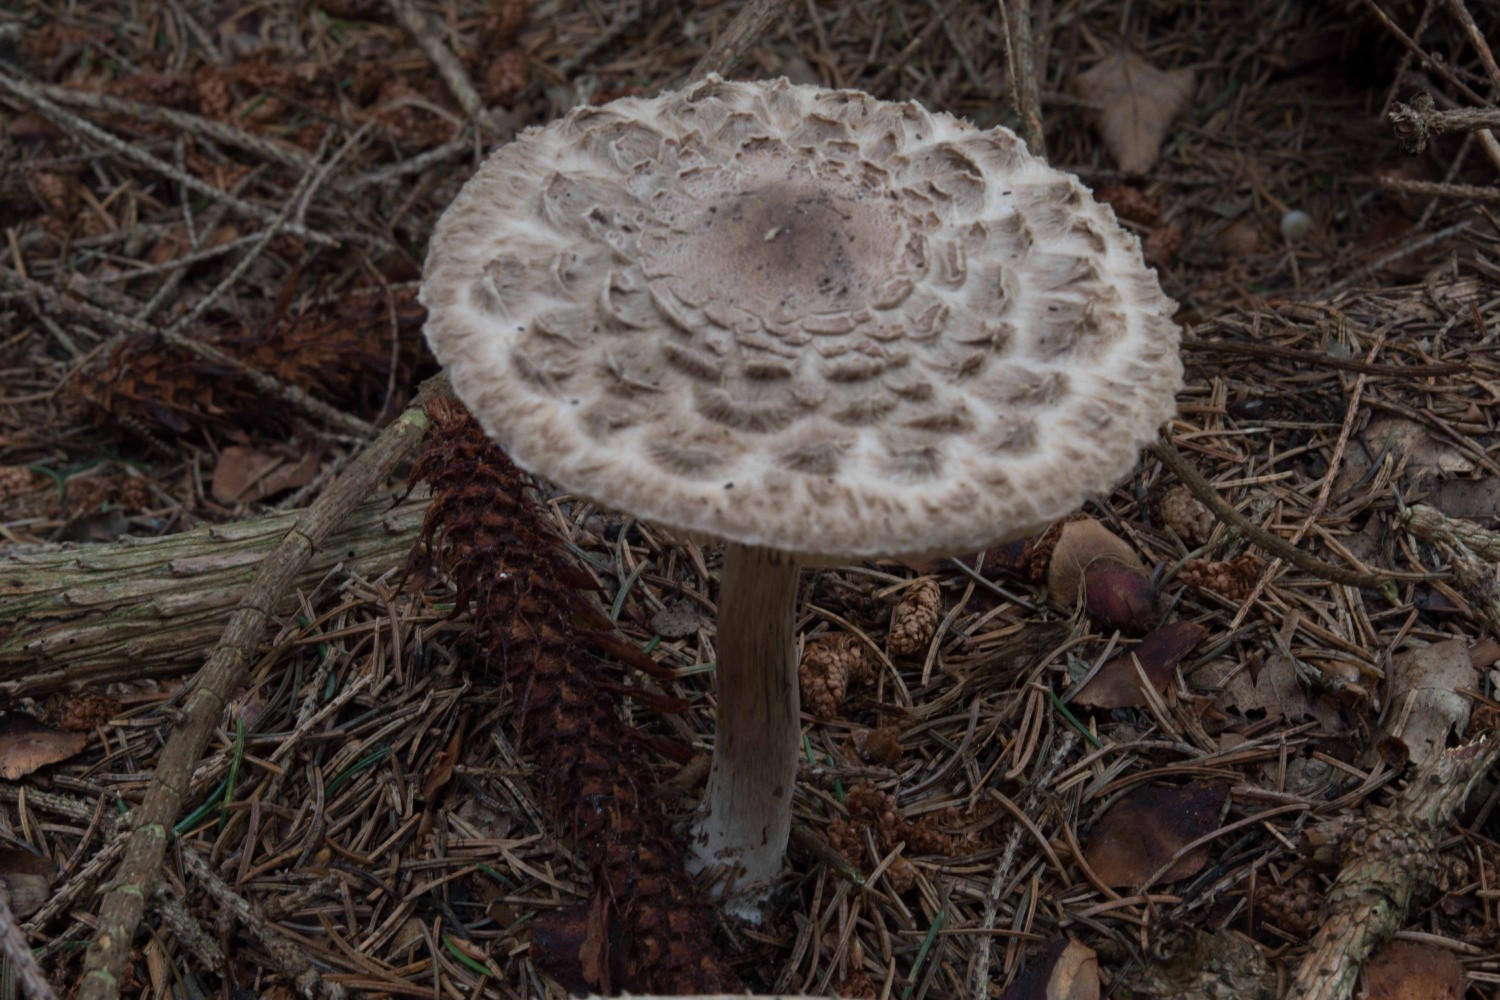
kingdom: Fungi
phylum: Basidiomycota
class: Agaricomycetes
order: Agaricales
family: Agaricaceae
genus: Chlorophyllum
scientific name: Chlorophyllum olivieri
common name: almindelig rabarberhat
